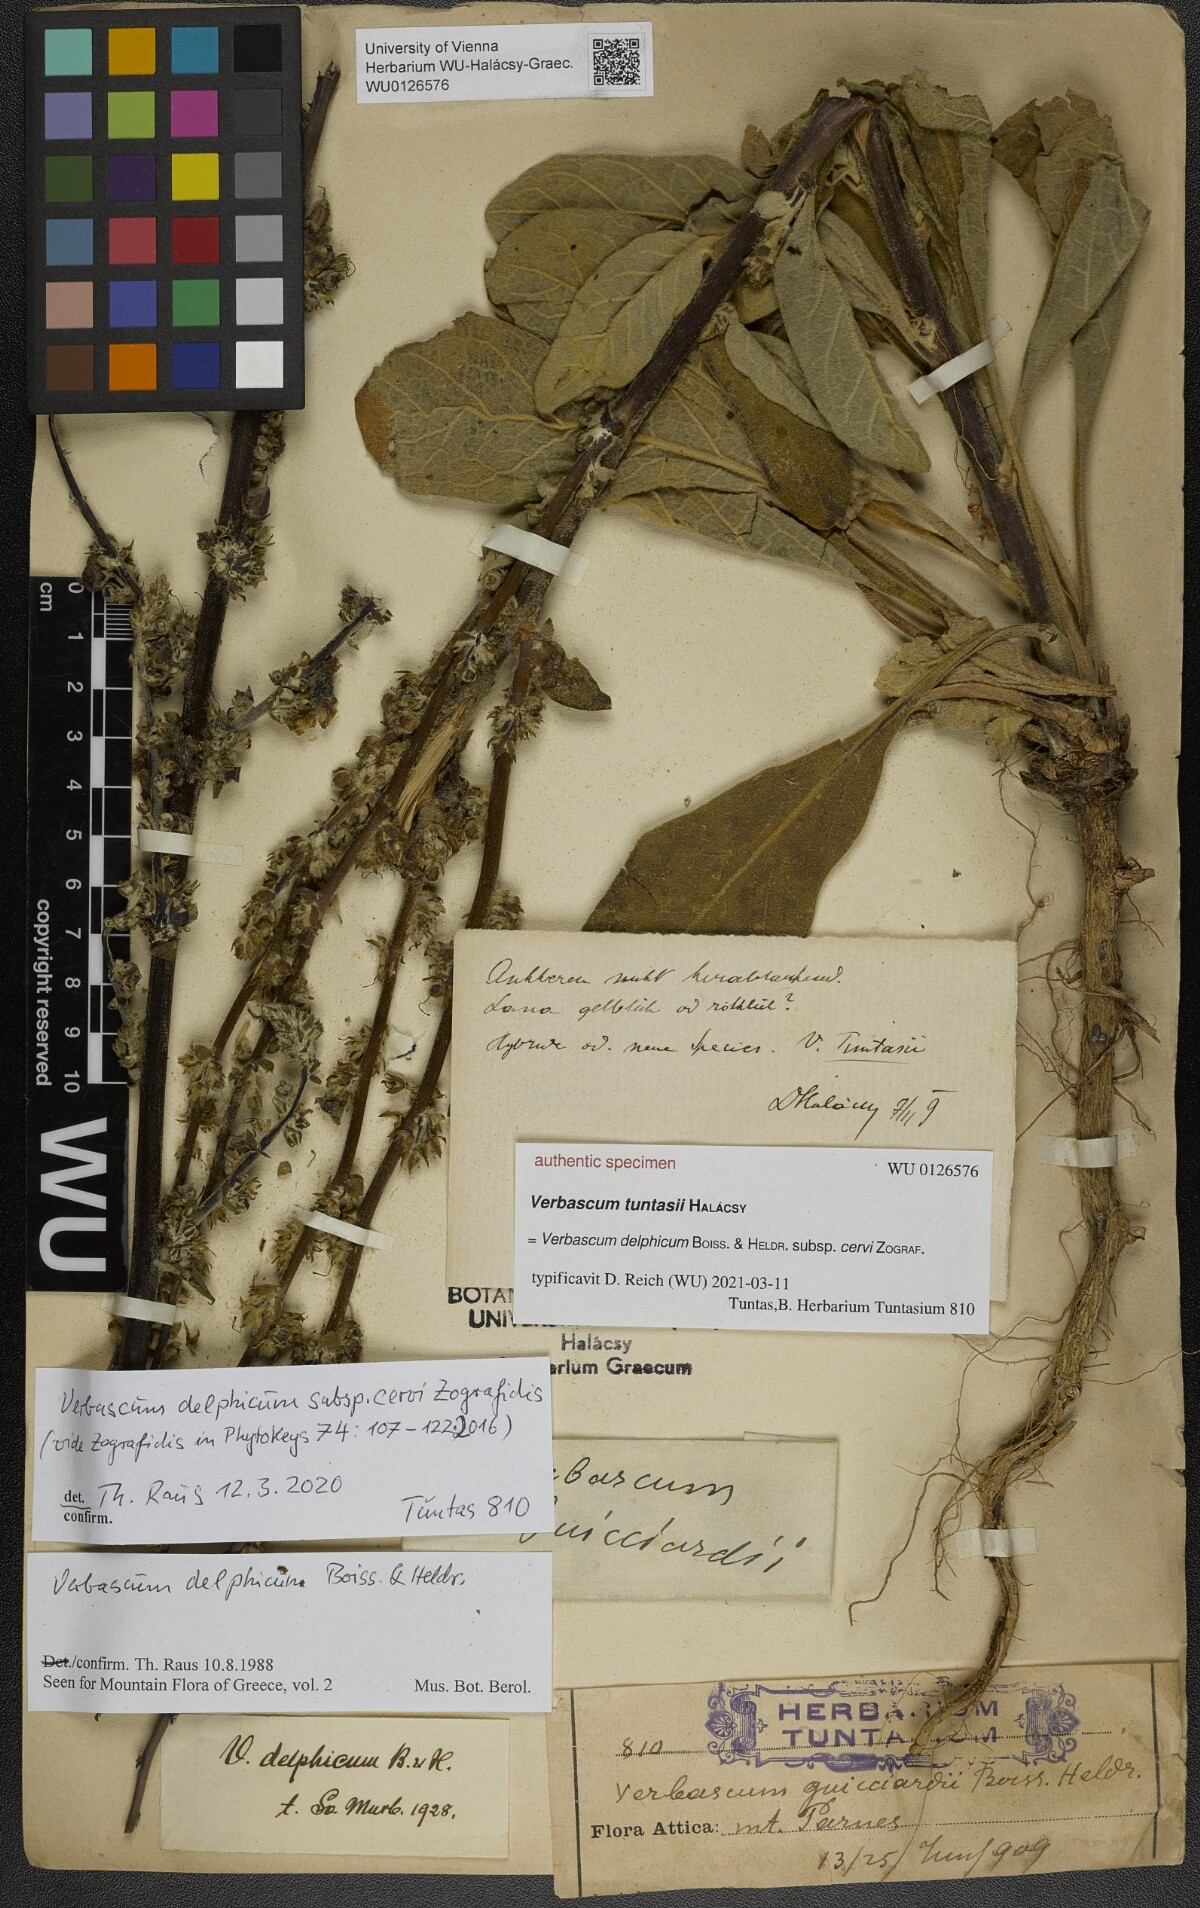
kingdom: Plantae
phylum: Tracheophyta
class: Magnoliopsida
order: Lamiales
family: Scrophulariaceae
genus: Verbascum
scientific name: Verbascum
